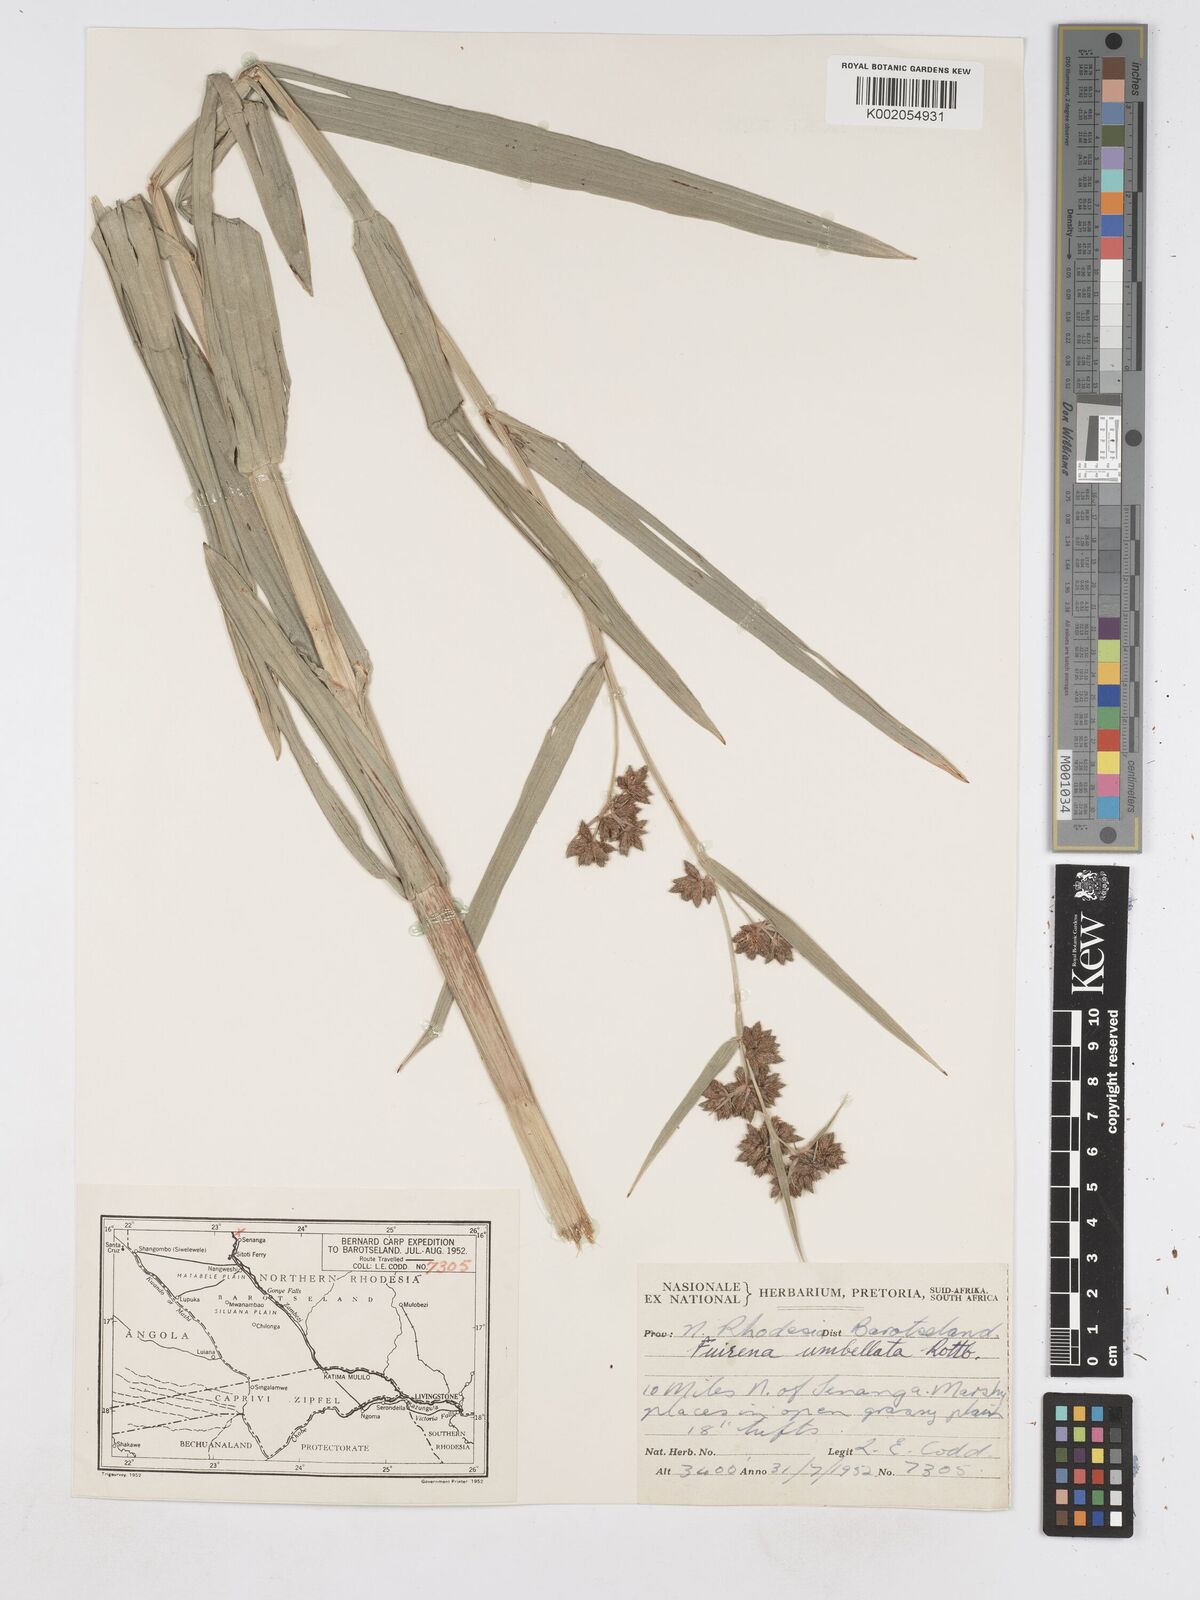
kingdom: Plantae
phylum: Tracheophyta
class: Liliopsida
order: Poales
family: Cyperaceae
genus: Fuirena
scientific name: Fuirena umbellata
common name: Yefen
